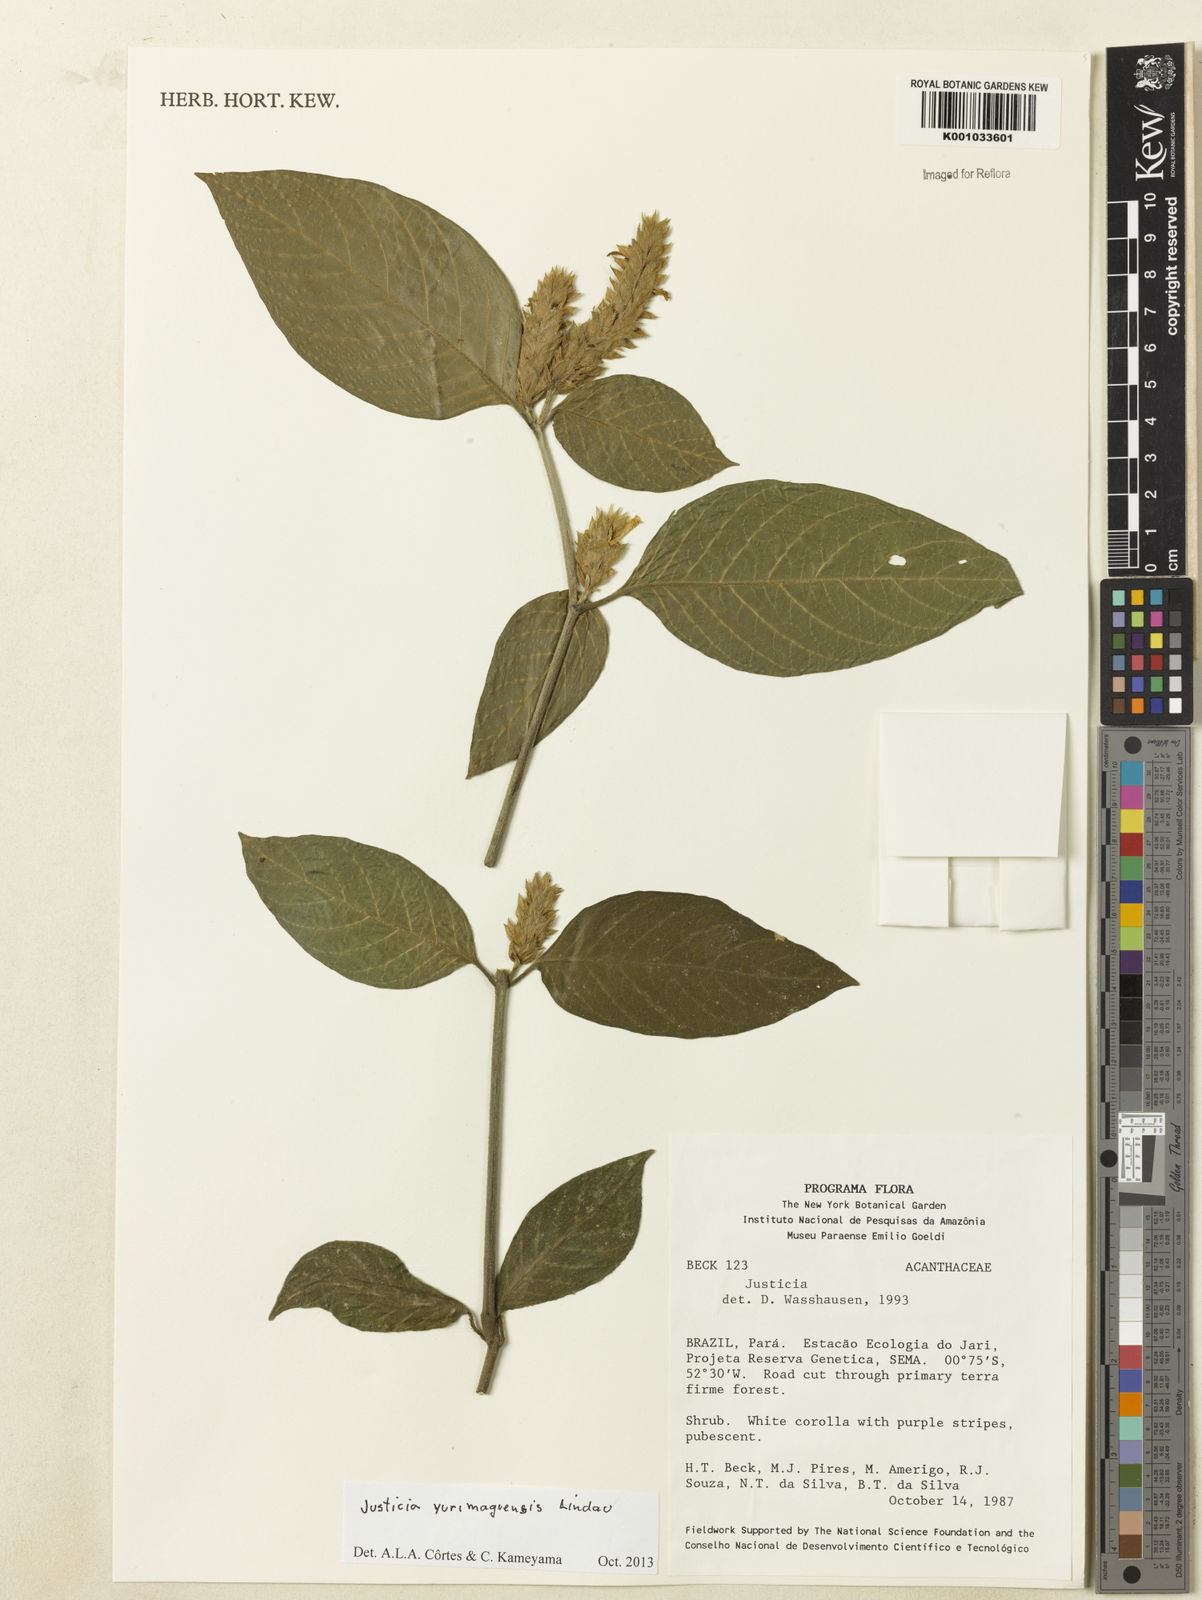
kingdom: Plantae
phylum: Tracheophyta
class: Magnoliopsida
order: Lamiales
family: Acanthaceae
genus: Justicia
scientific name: Justicia yurimaguensis
